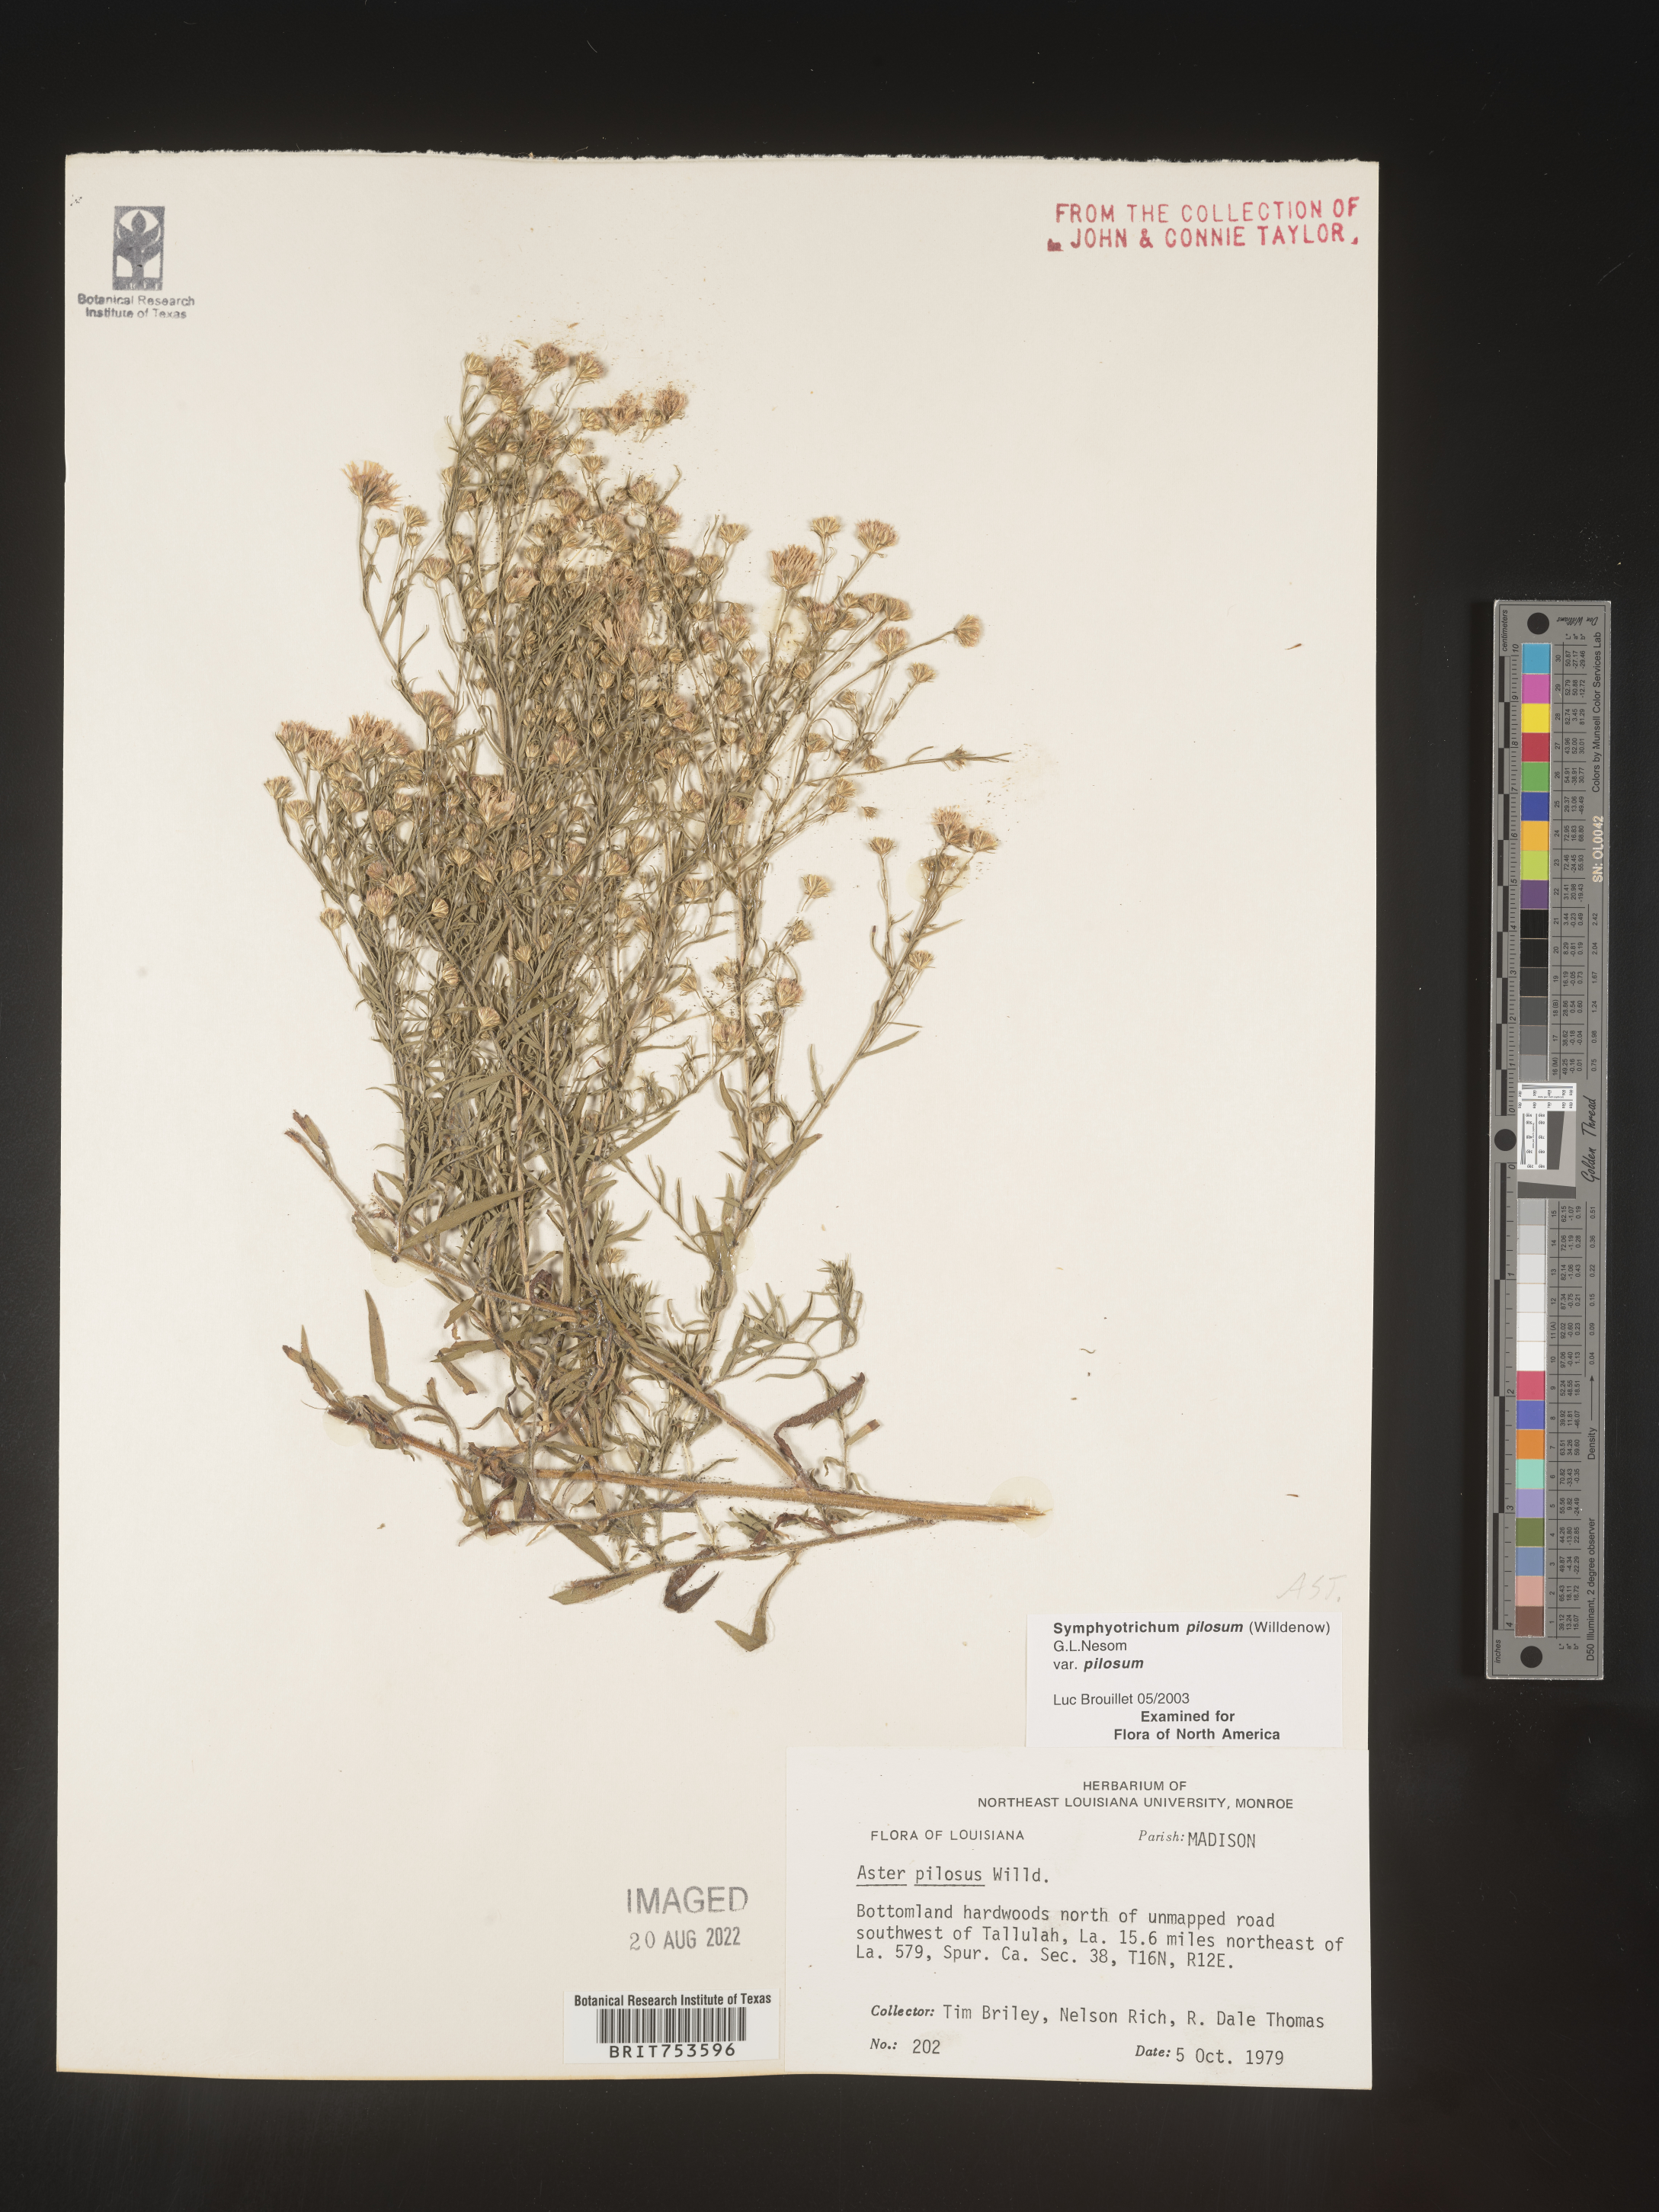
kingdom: Plantae
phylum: Tracheophyta
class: Magnoliopsida
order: Asterales
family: Asteraceae
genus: Symphyotrichum
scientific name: Symphyotrichum pilosum
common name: Awl aster
